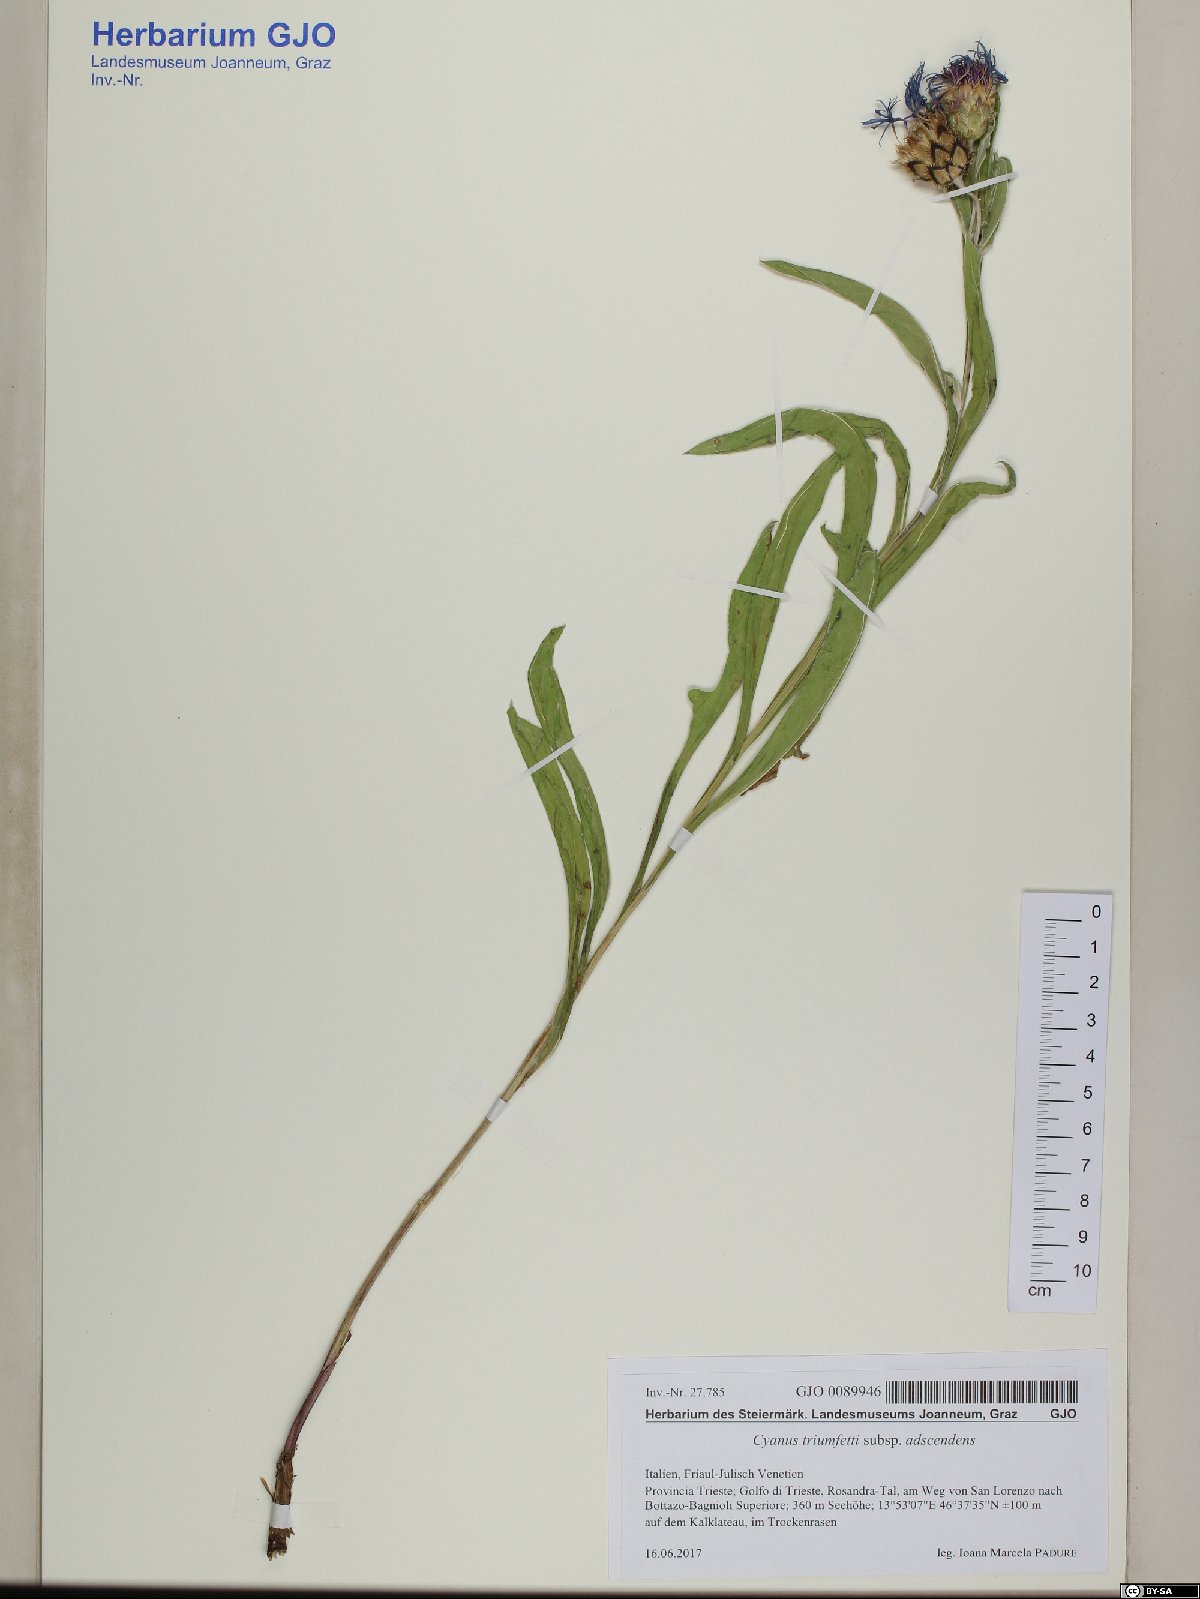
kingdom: Plantae
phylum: Tracheophyta
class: Magnoliopsida
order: Asterales
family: Asteraceae
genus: Centaurea
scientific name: Centaurea triumfettii
